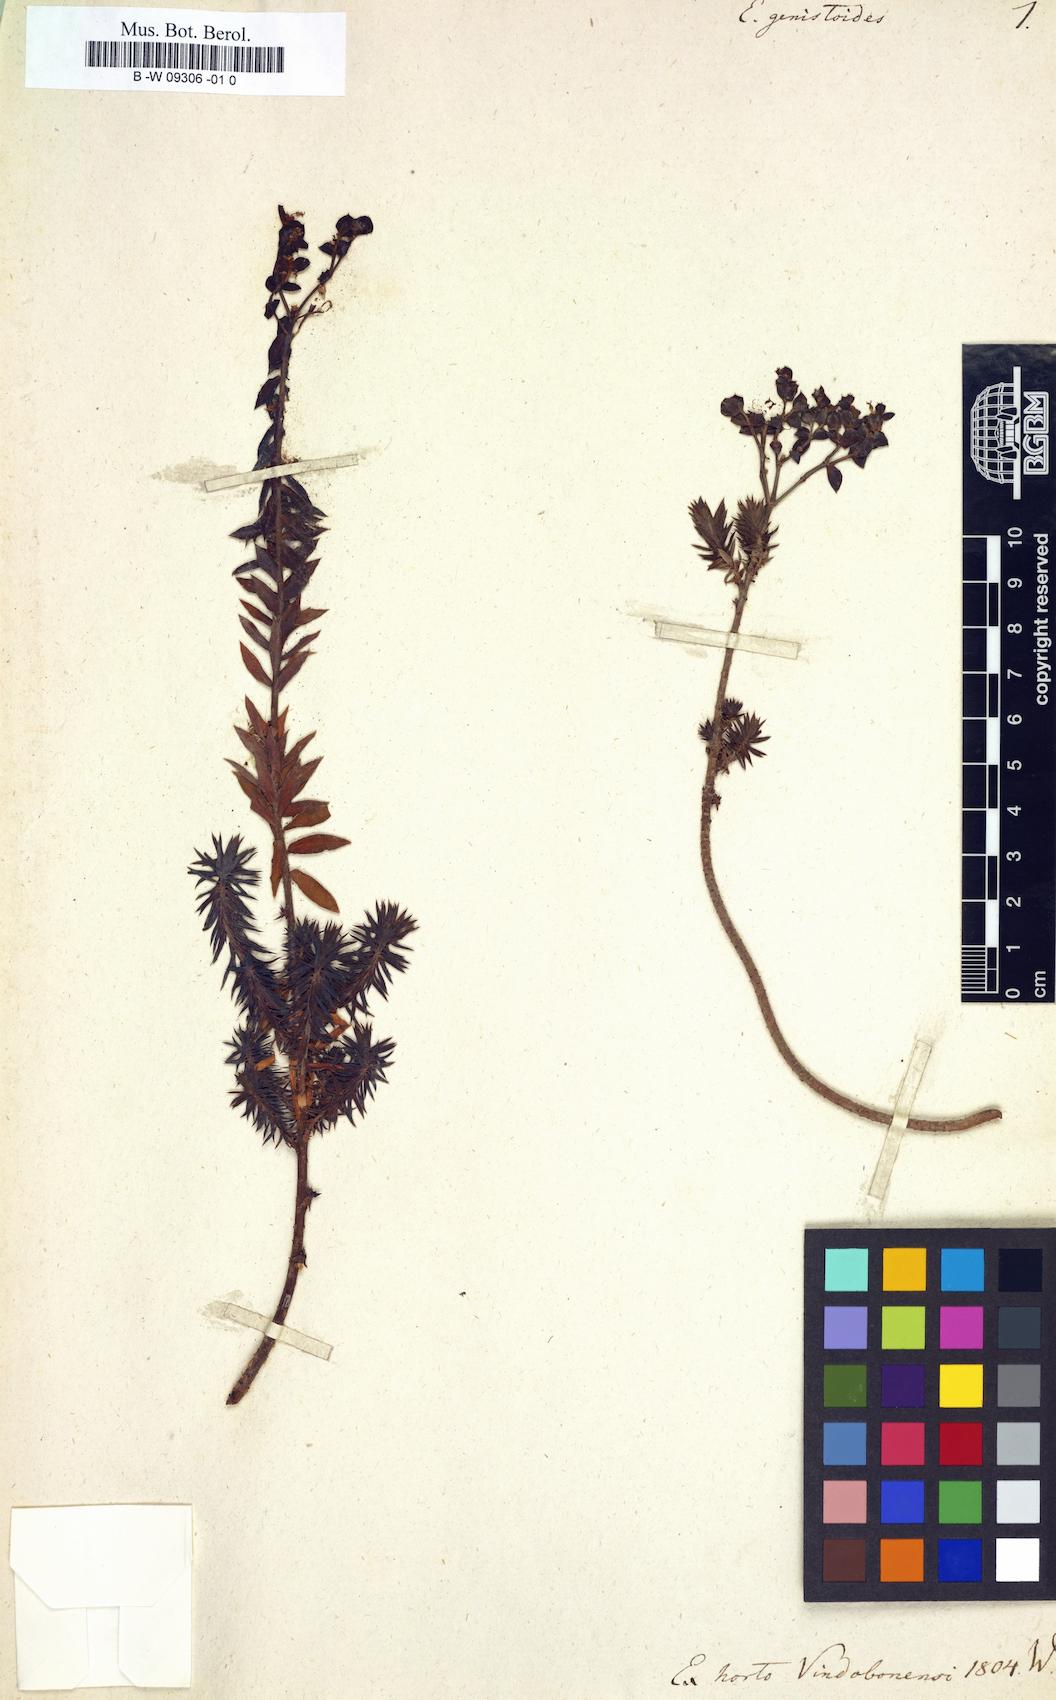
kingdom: Plantae
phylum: Tracheophyta
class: Magnoliopsida
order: Malpighiales
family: Euphorbiaceae
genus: Euphorbia
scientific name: Euphorbia genistoides
